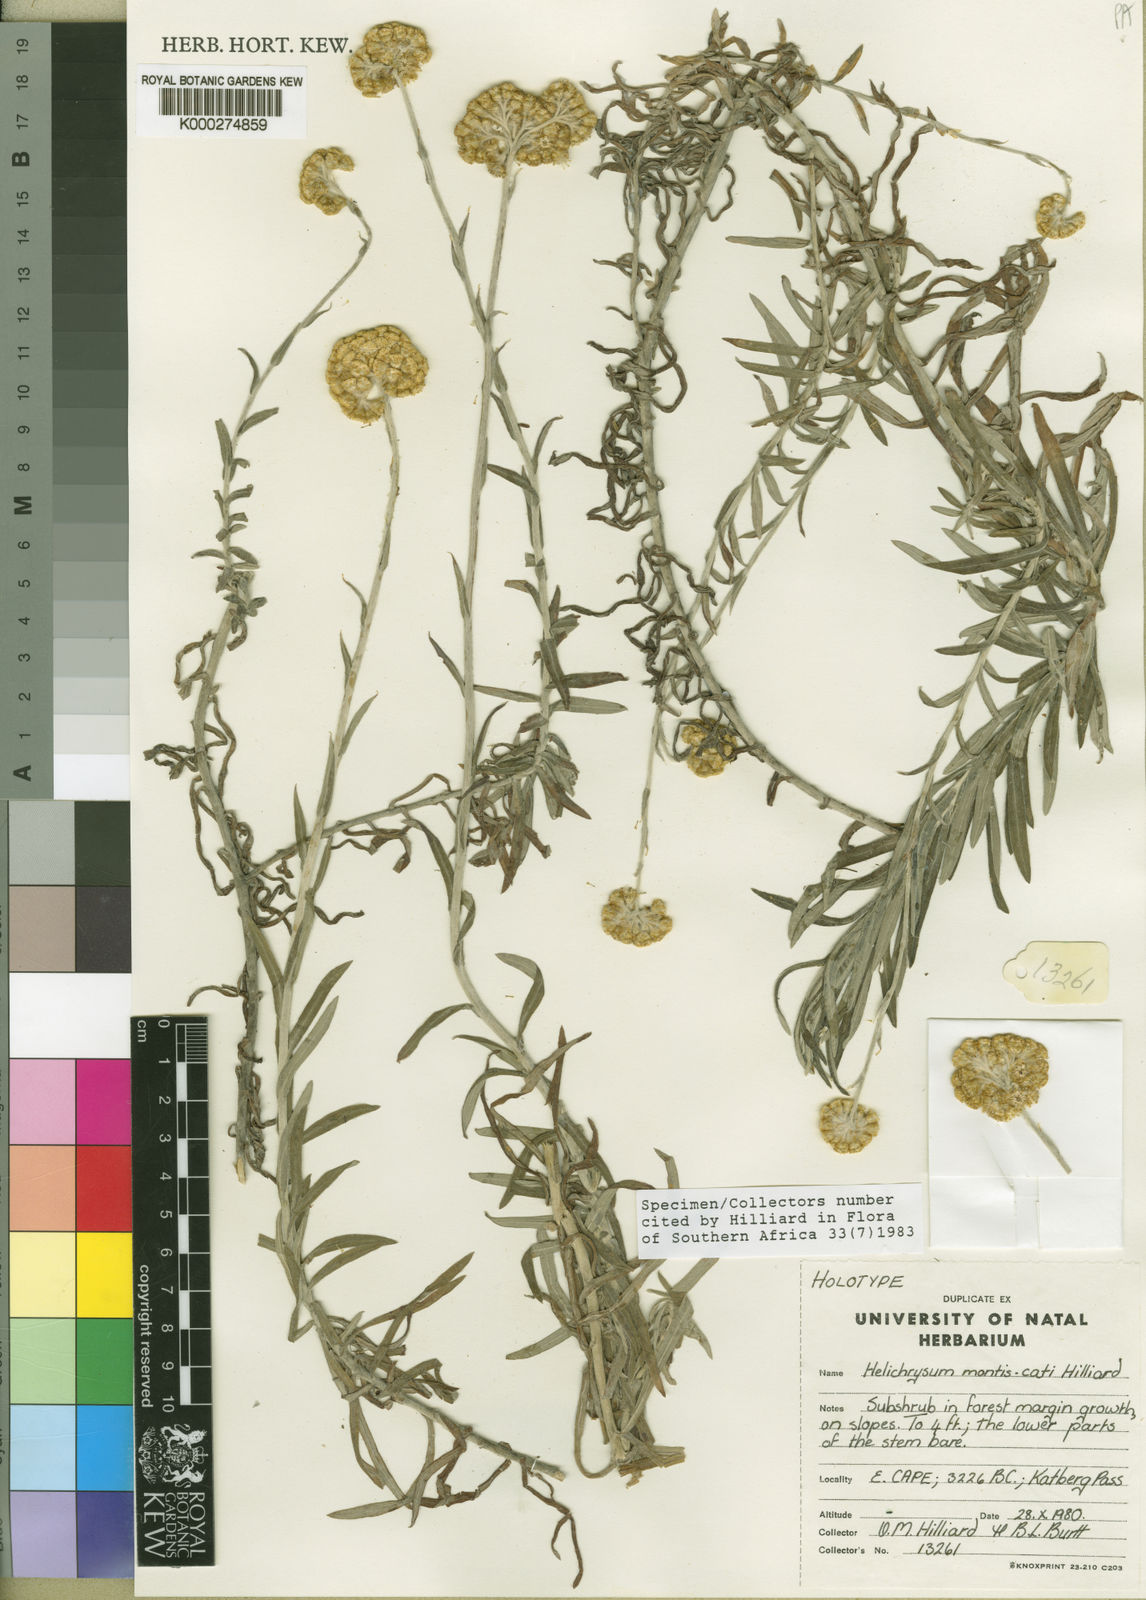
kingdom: Plantae
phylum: Tracheophyta
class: Magnoliopsida
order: Asterales
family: Asteraceae
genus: Helichrysum
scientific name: Helichrysum montis-cati
